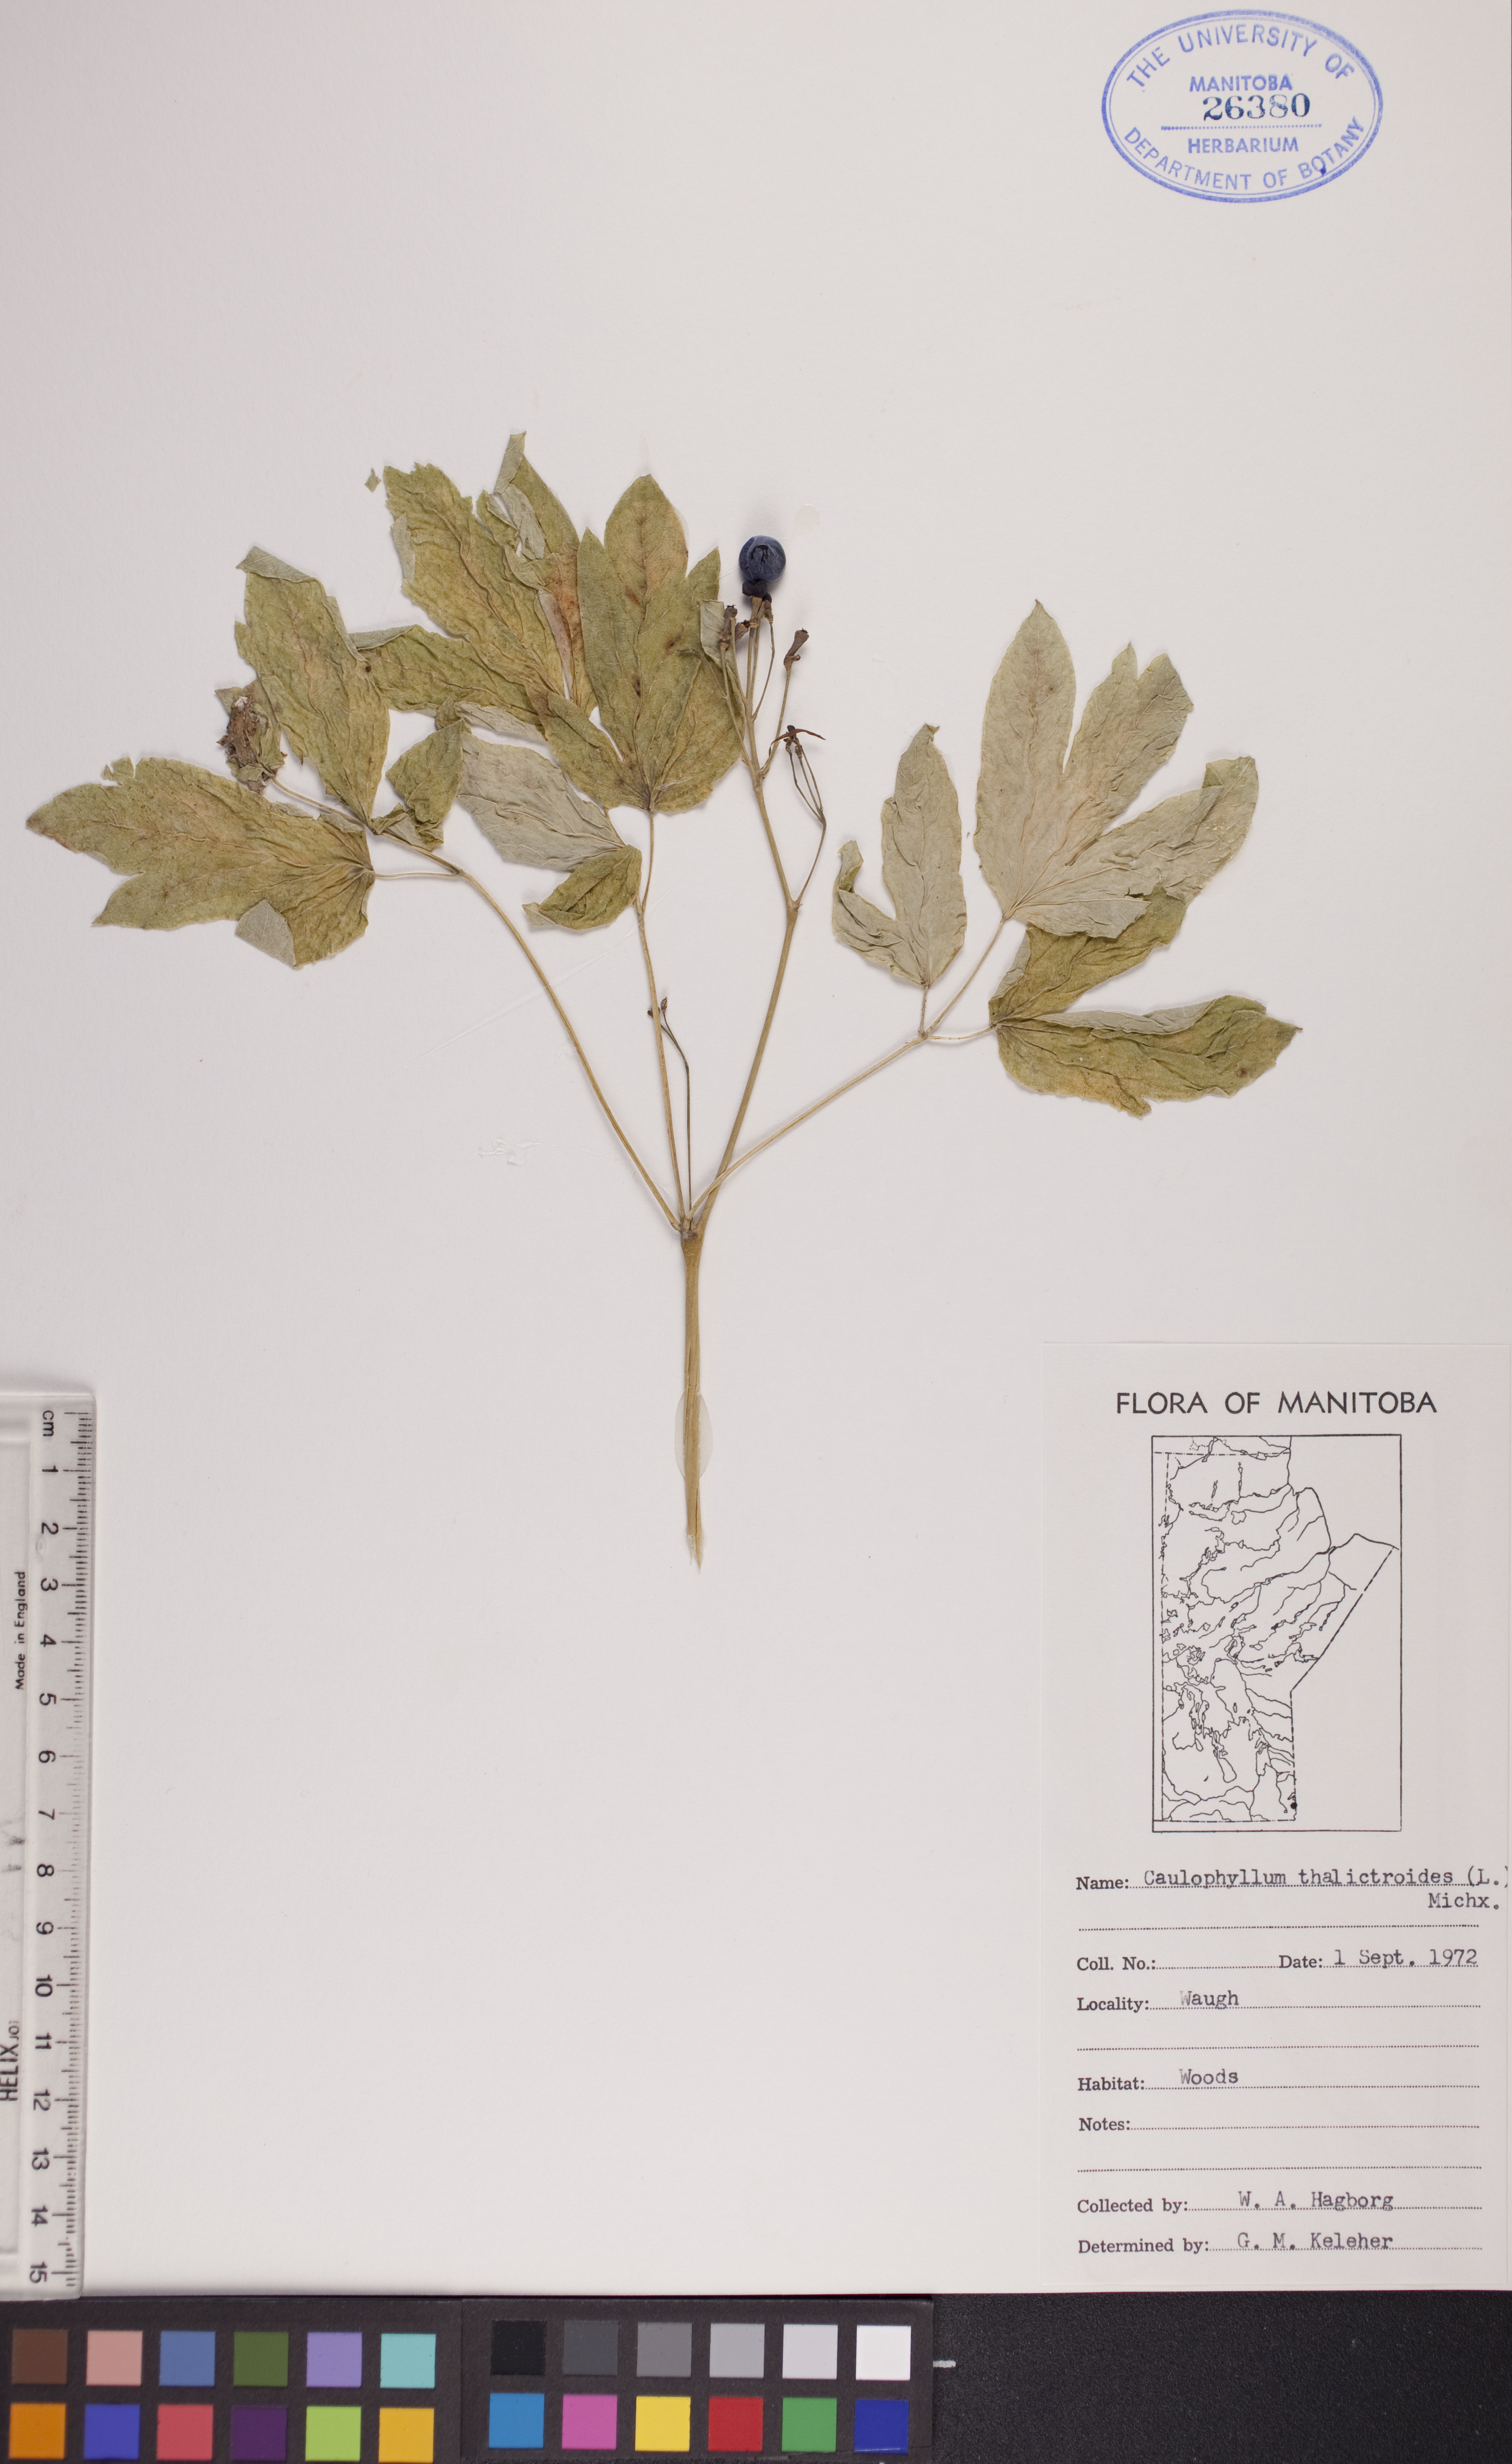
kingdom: Plantae
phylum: Tracheophyta
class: Magnoliopsida
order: Ranunculales
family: Berberidaceae
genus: Caulophyllum
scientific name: Caulophyllum thalictroides
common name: Blue cohosh
